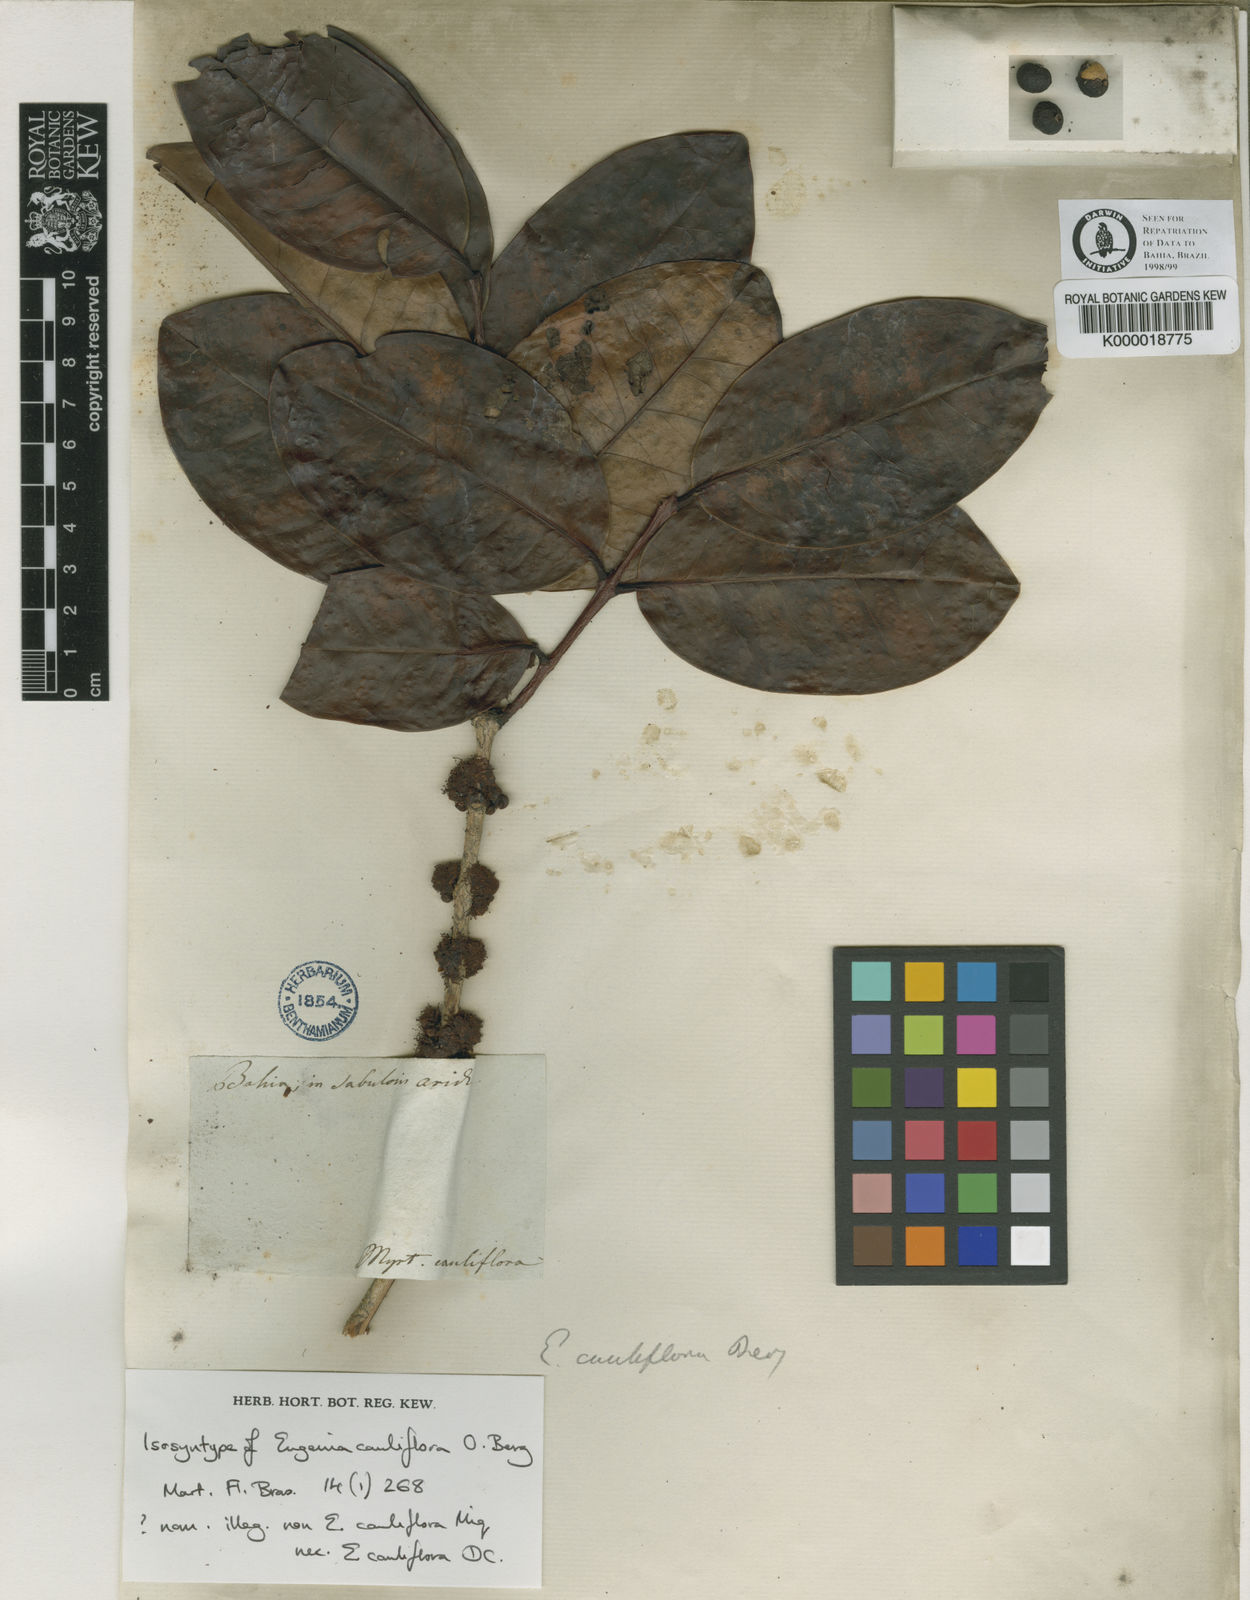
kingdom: Plantae
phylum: Tracheophyta
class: Magnoliopsida
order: Myrtales
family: Myrtaceae
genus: Eugenia
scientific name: Eugenia warmingiana
